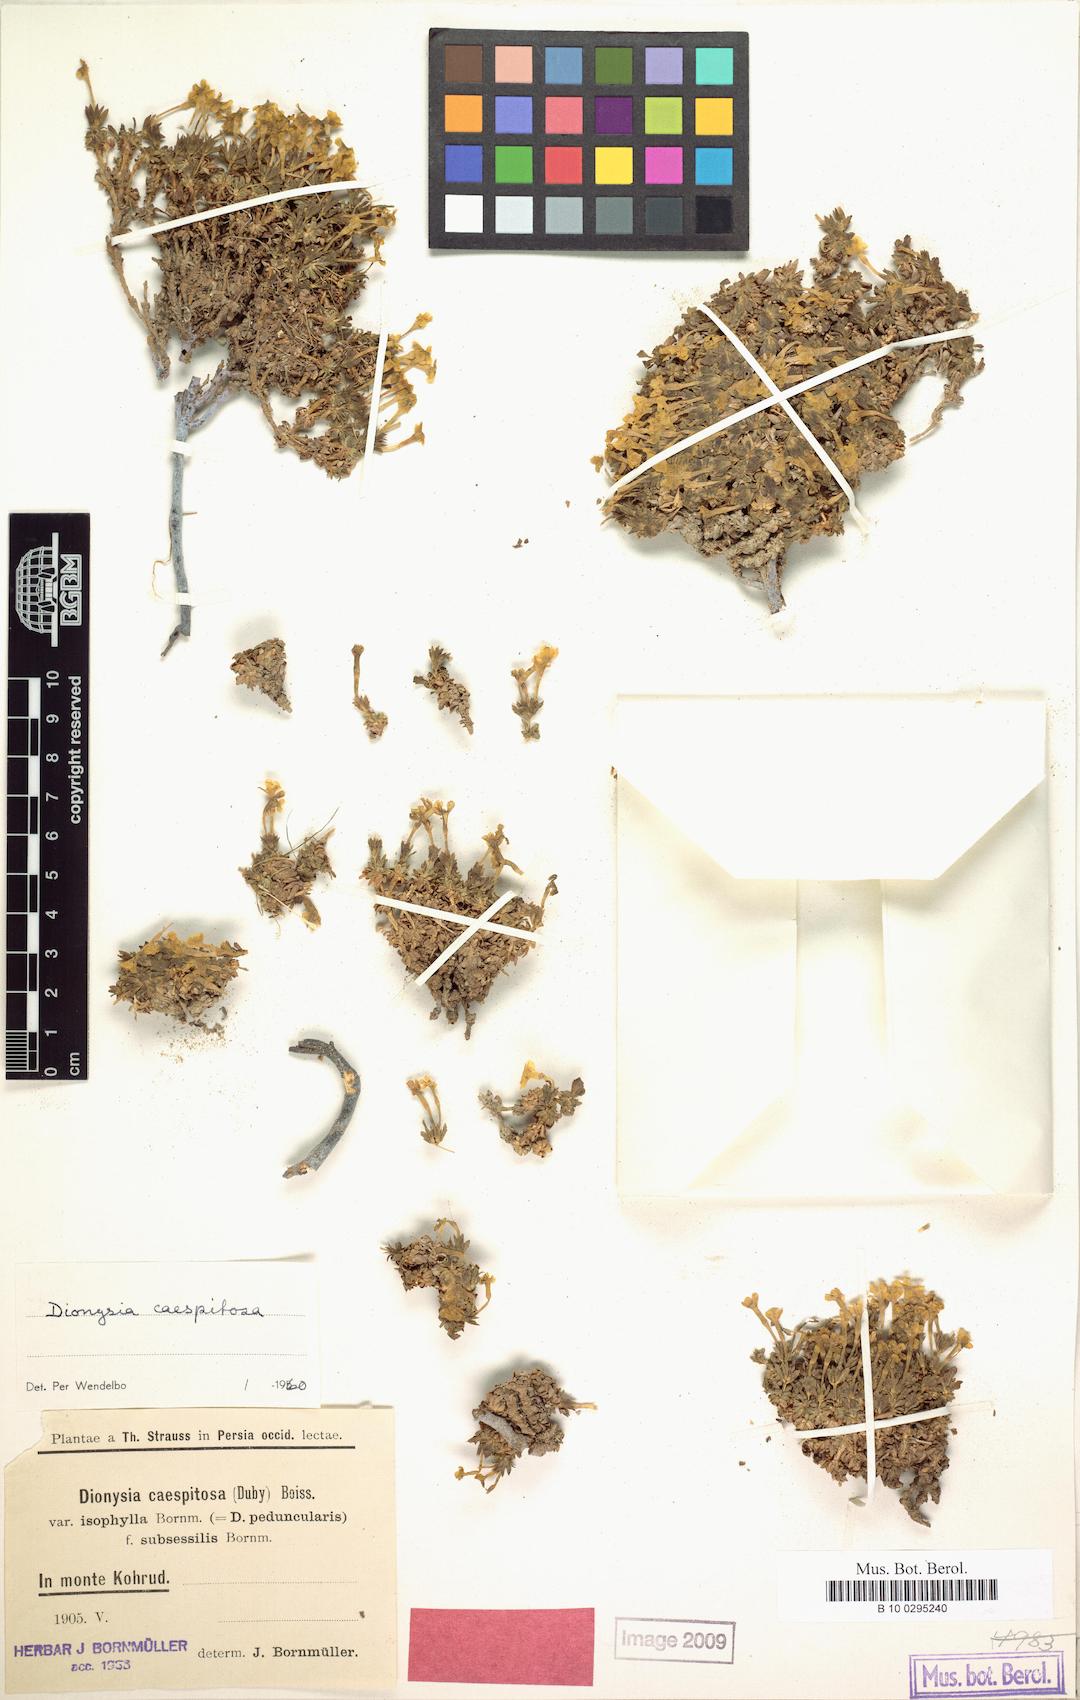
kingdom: Plantae
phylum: Tracheophyta
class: Magnoliopsida
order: Ericales
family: Primulaceae
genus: Dionysia
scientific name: Dionysia caespitosa
